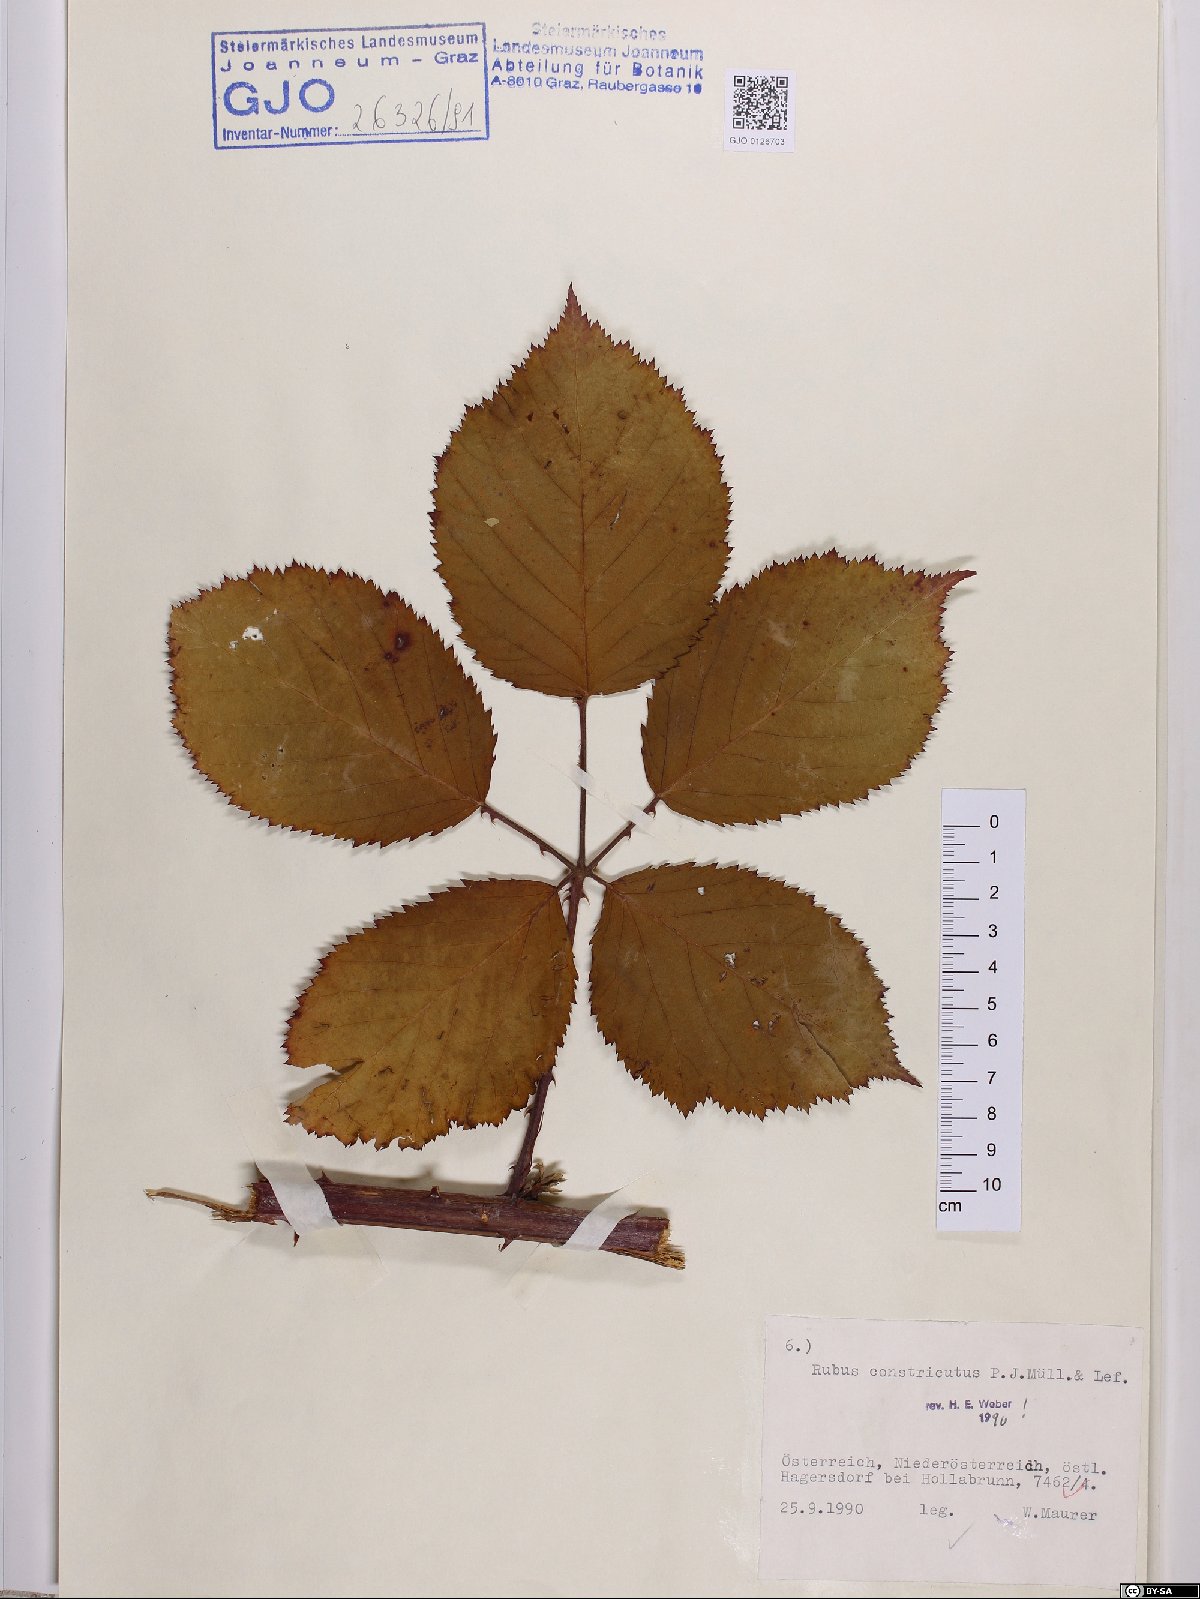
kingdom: Plantae
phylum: Tracheophyta
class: Magnoliopsida
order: Rosales
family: Rosaceae
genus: Rubus
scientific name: Rubus constrictus
